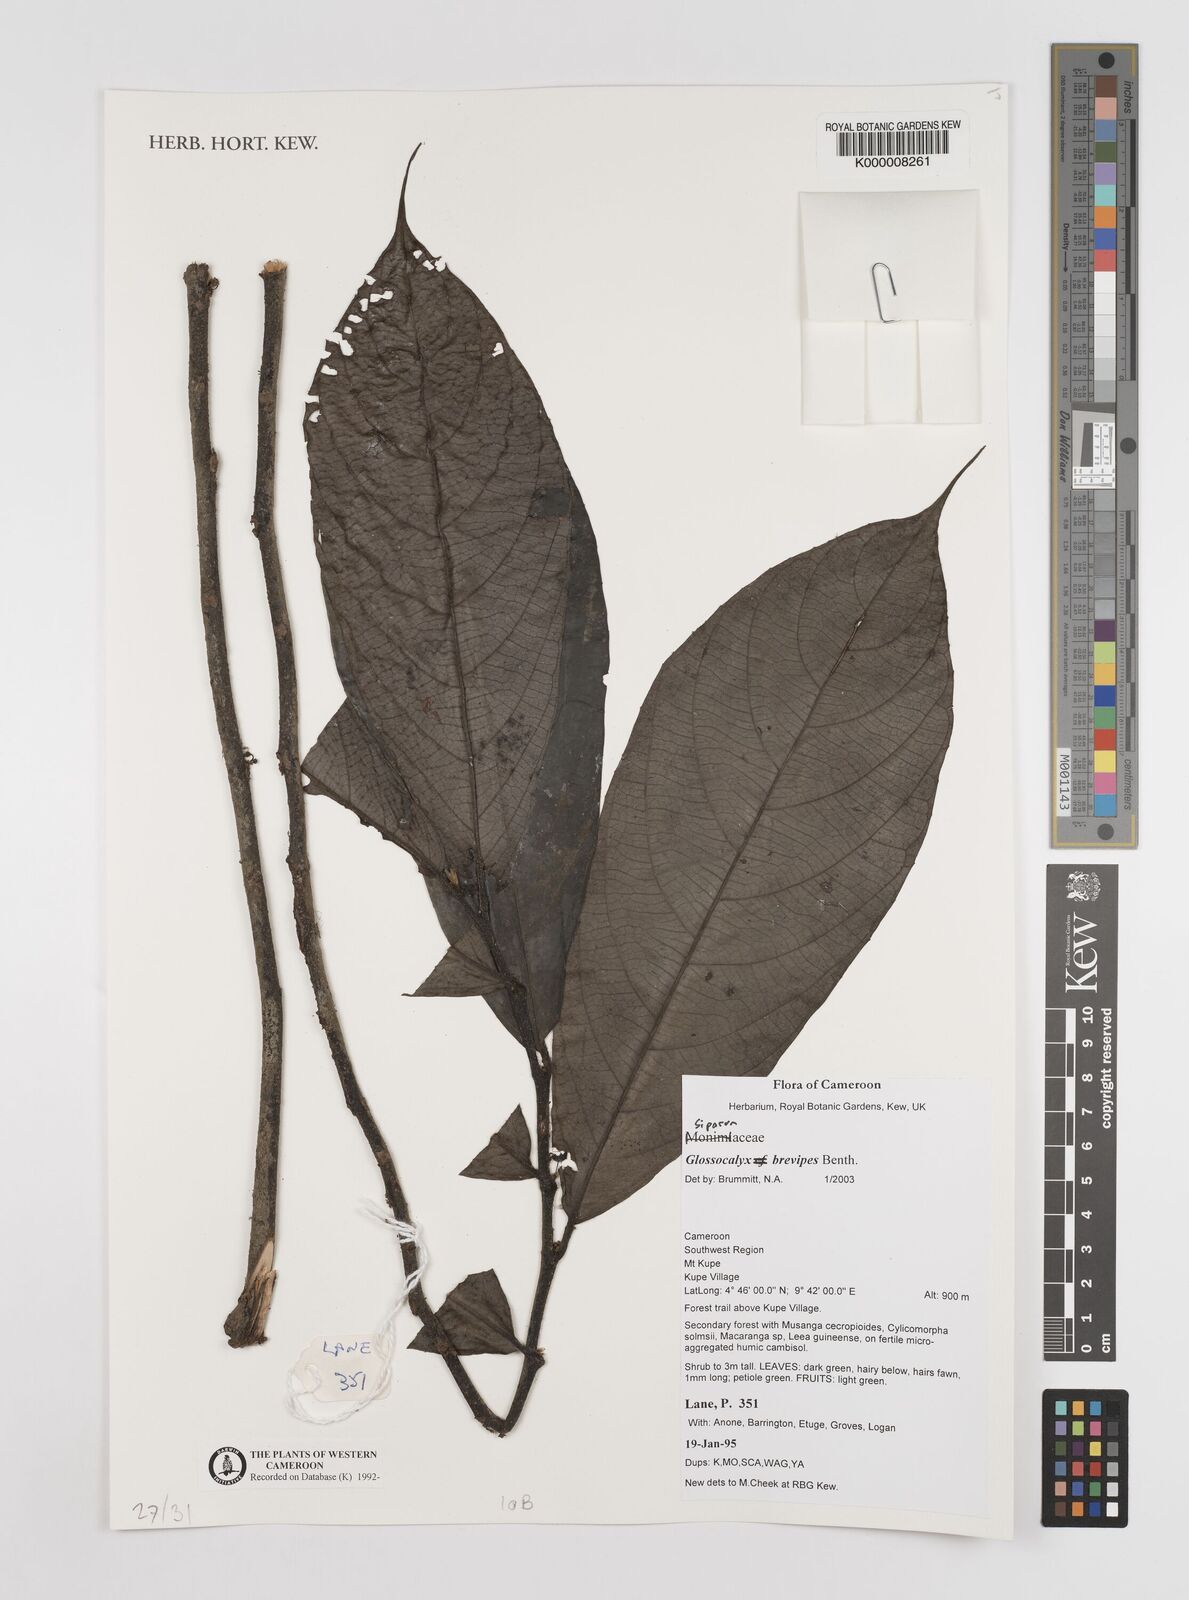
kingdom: Plantae
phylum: Tracheophyta
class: Magnoliopsida
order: Laurales
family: Siparunaceae
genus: Glossocalyx
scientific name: Glossocalyx brevipes
